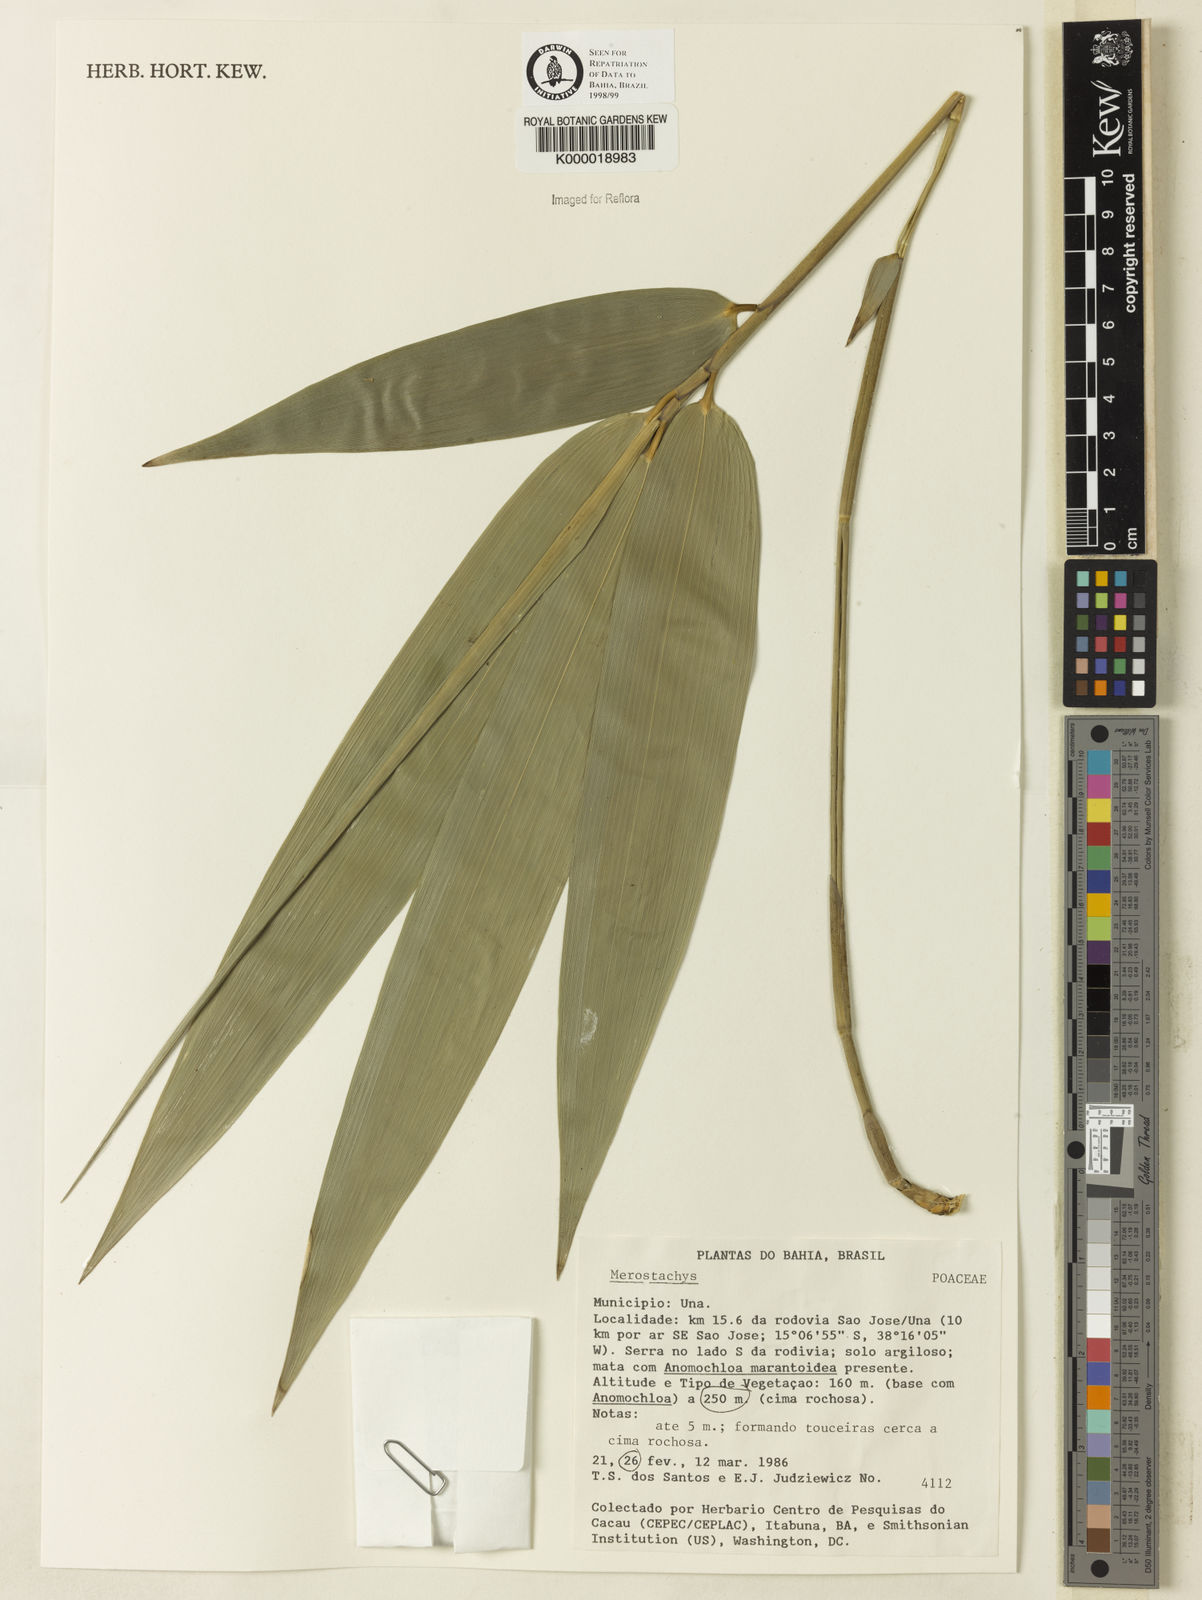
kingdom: Plantae
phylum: Tracheophyta
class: Liliopsida
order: Poales
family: Poaceae
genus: Merostachys
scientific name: Merostachys
